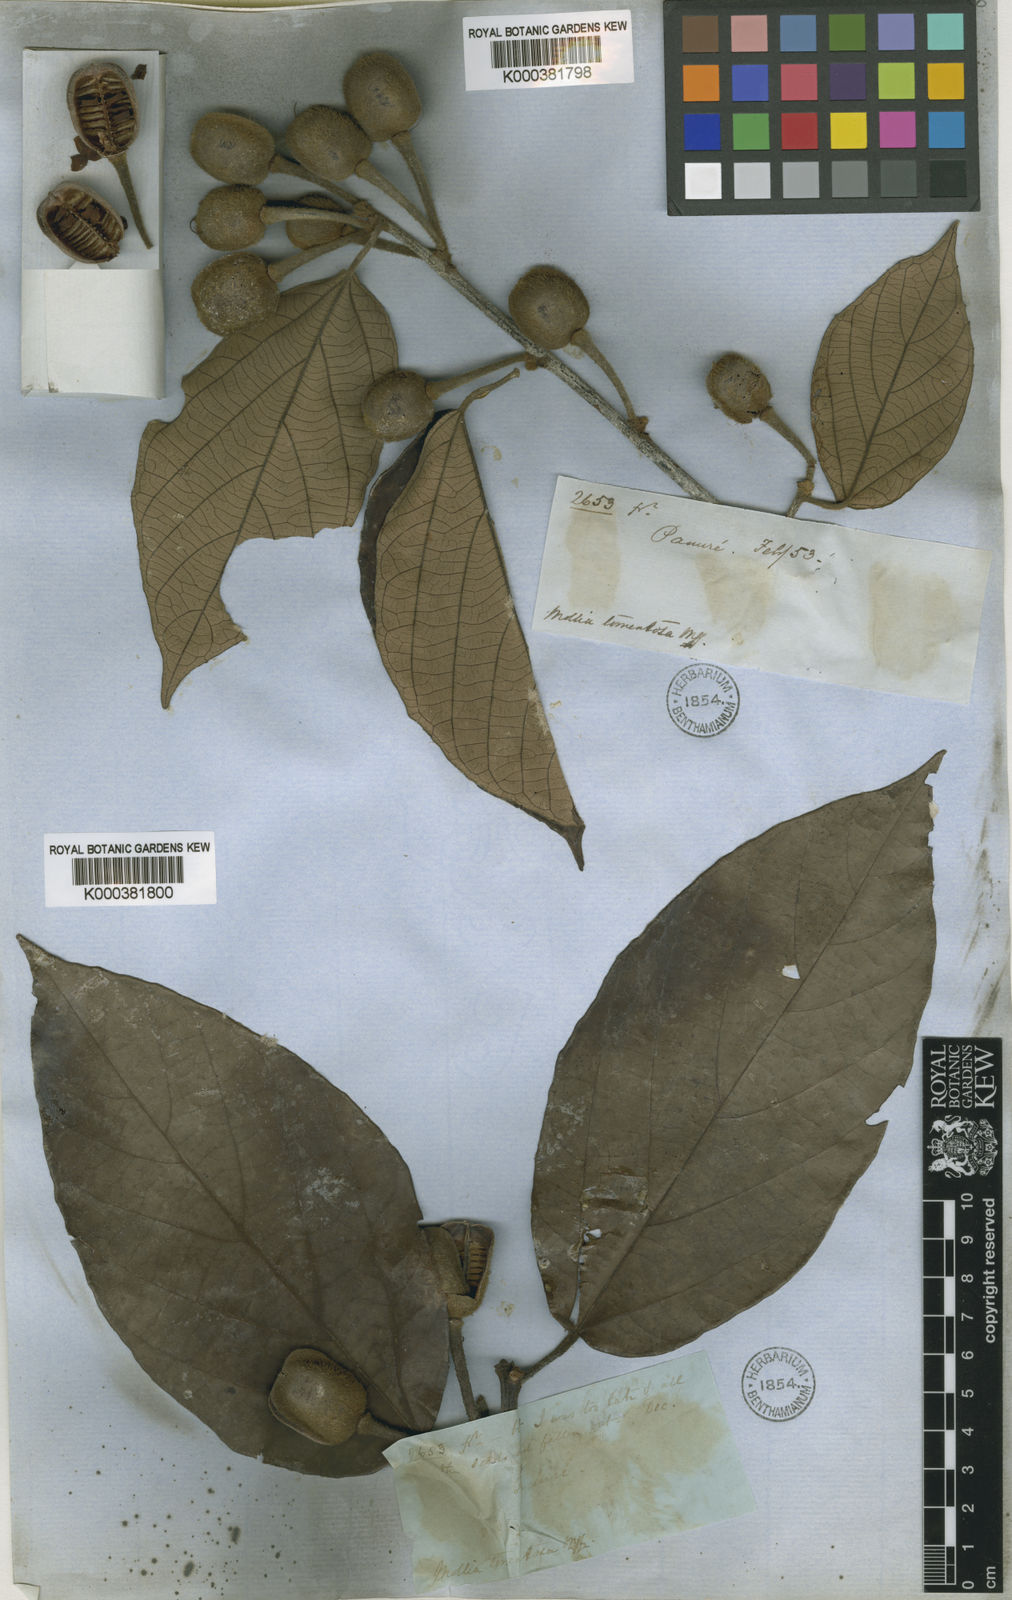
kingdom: Plantae
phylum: Tracheophyta
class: Magnoliopsida
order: Malvales
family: Malvaceae
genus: Mollia
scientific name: Mollia tomentosa
